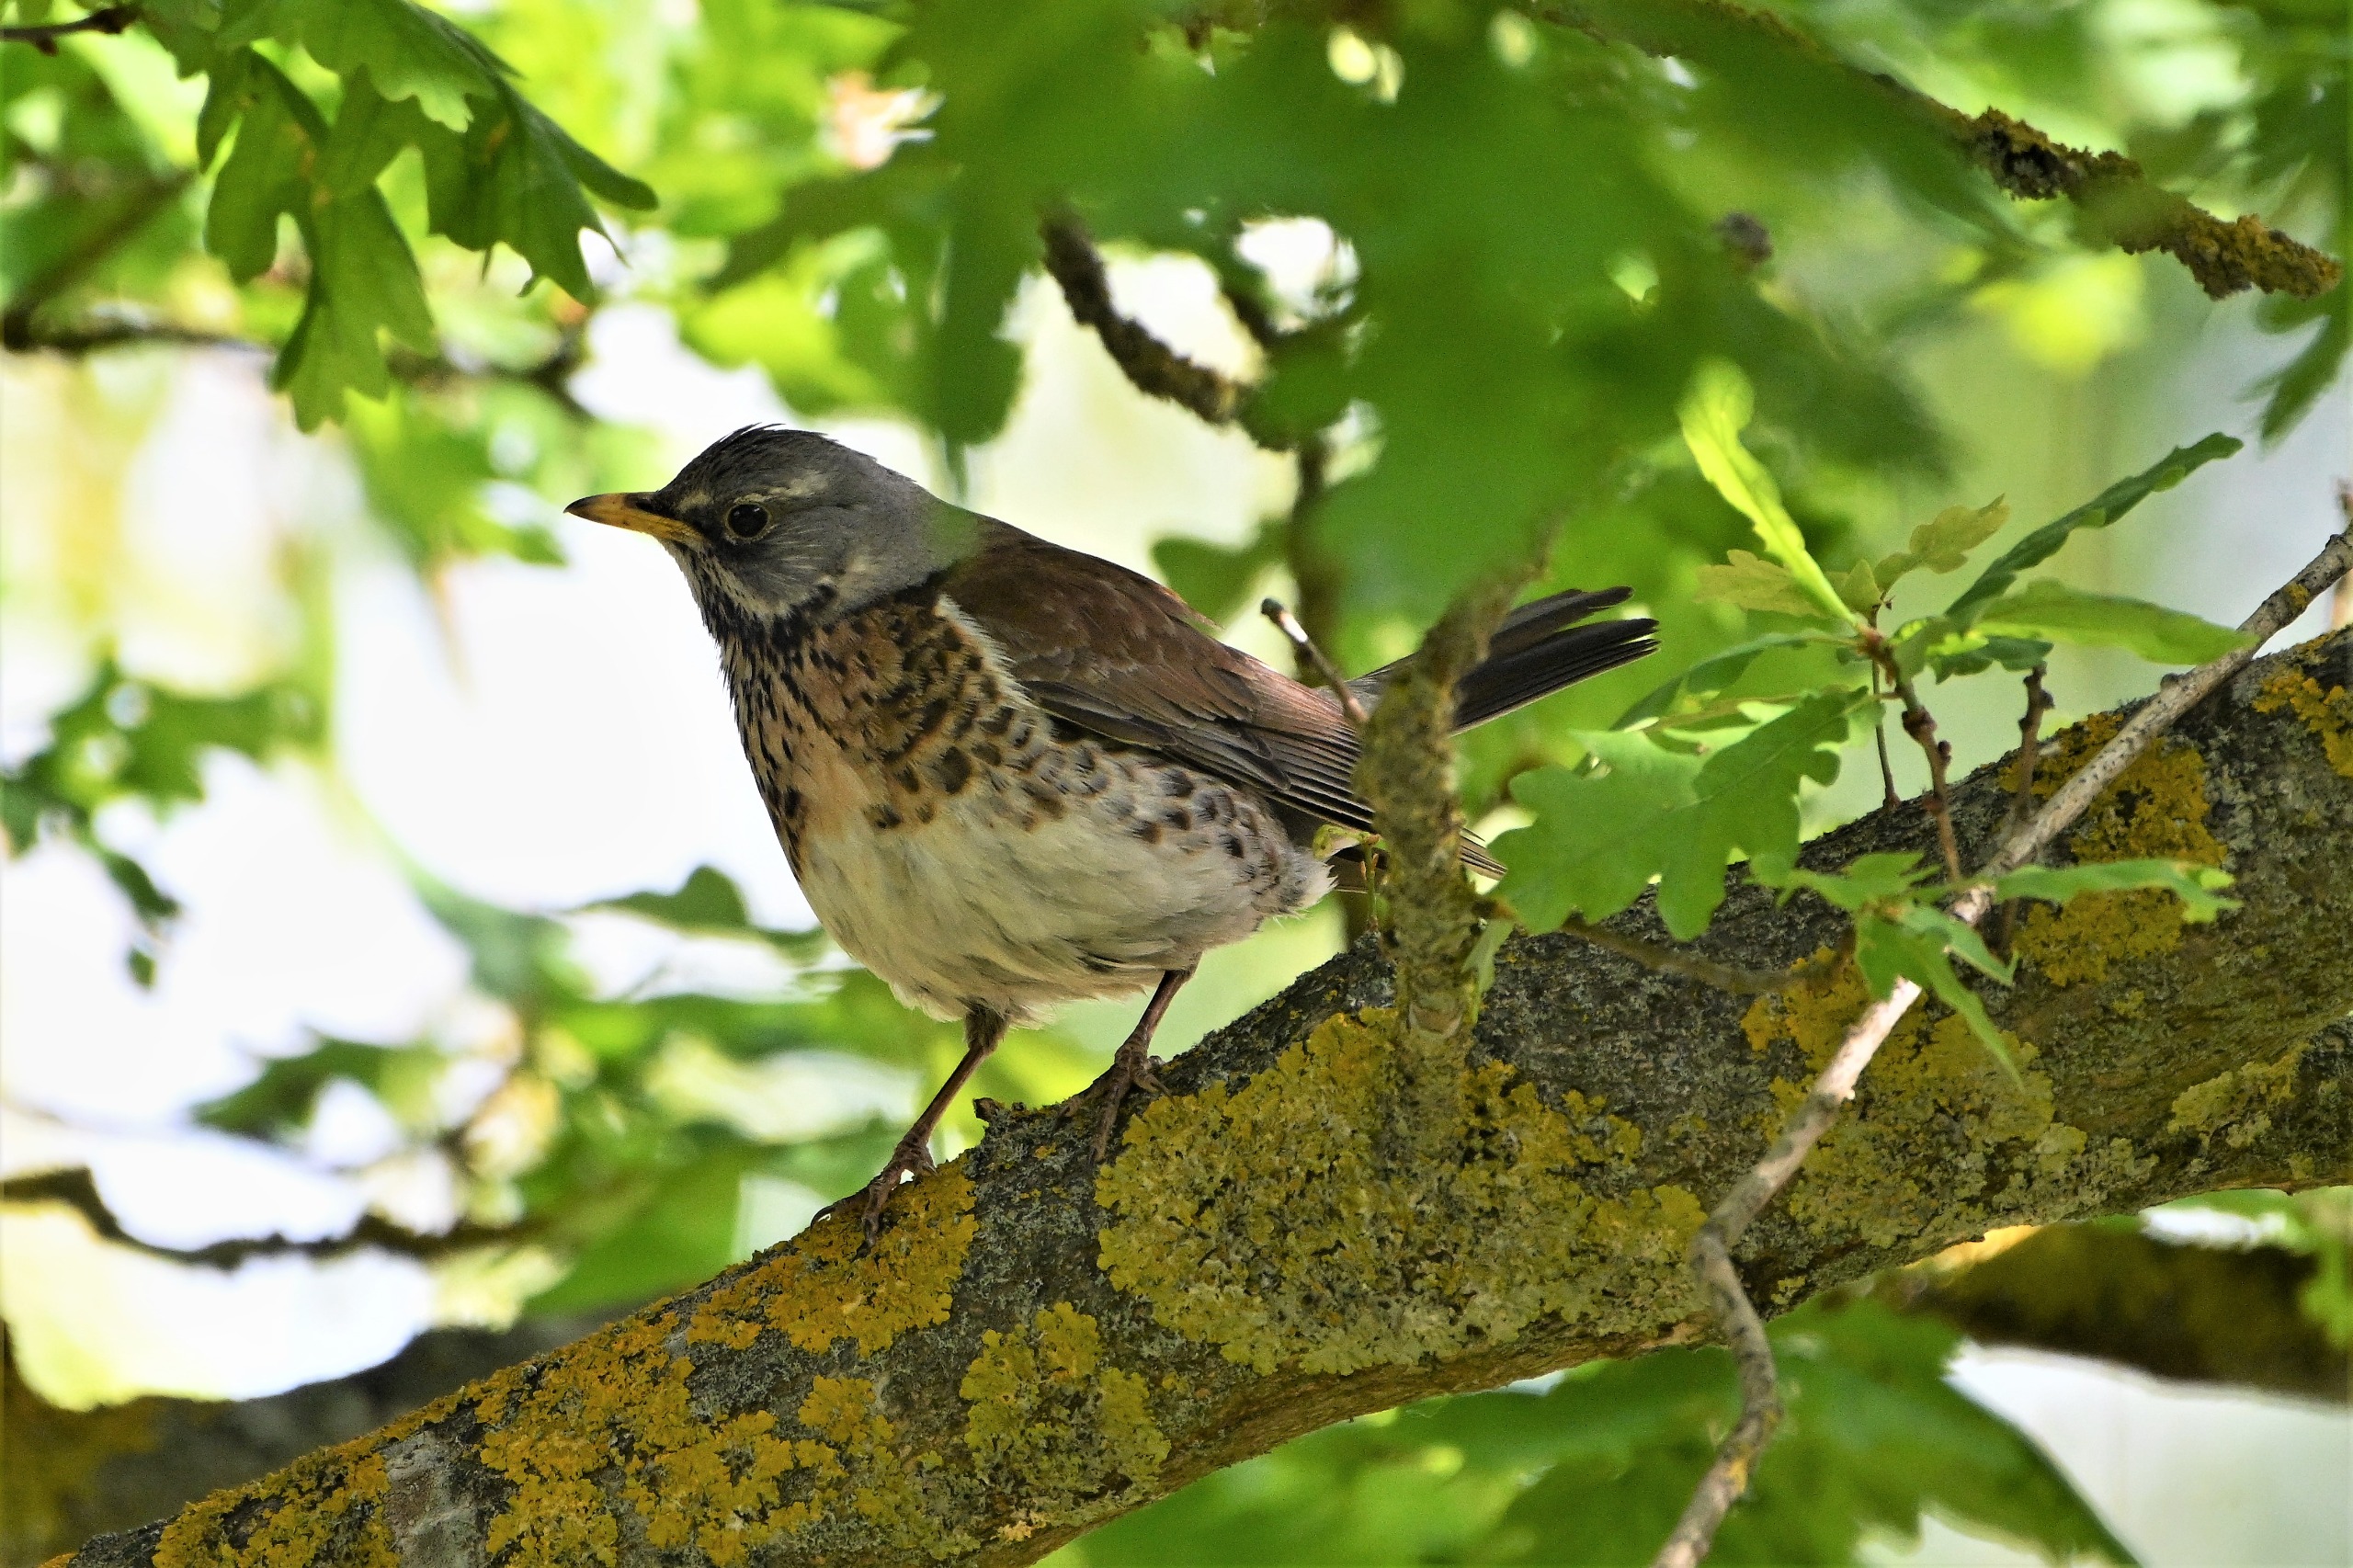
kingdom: Animalia
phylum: Chordata
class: Aves
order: Passeriformes
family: Turdidae
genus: Turdus
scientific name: Turdus pilaris
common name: Sjagger
